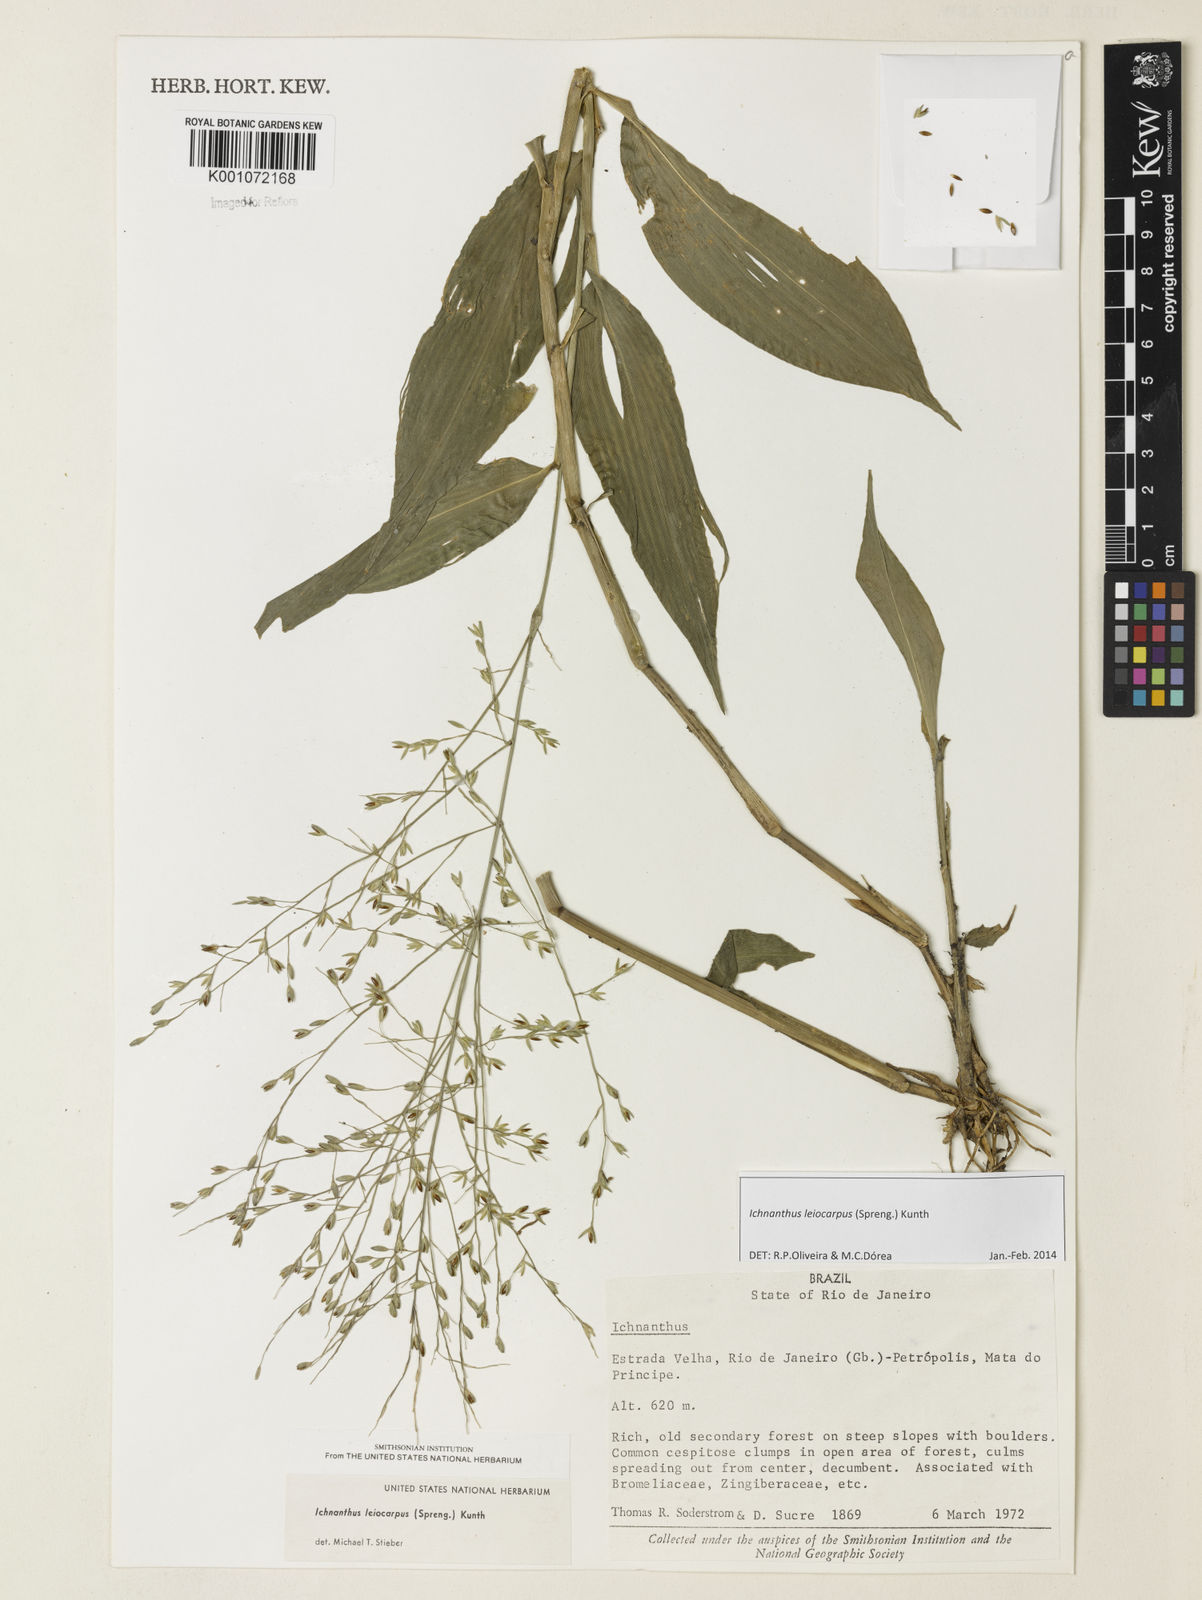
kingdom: Plantae
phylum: Tracheophyta
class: Liliopsida
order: Poales
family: Poaceae
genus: Ichnanthus
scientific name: Ichnanthus leiocarpus
